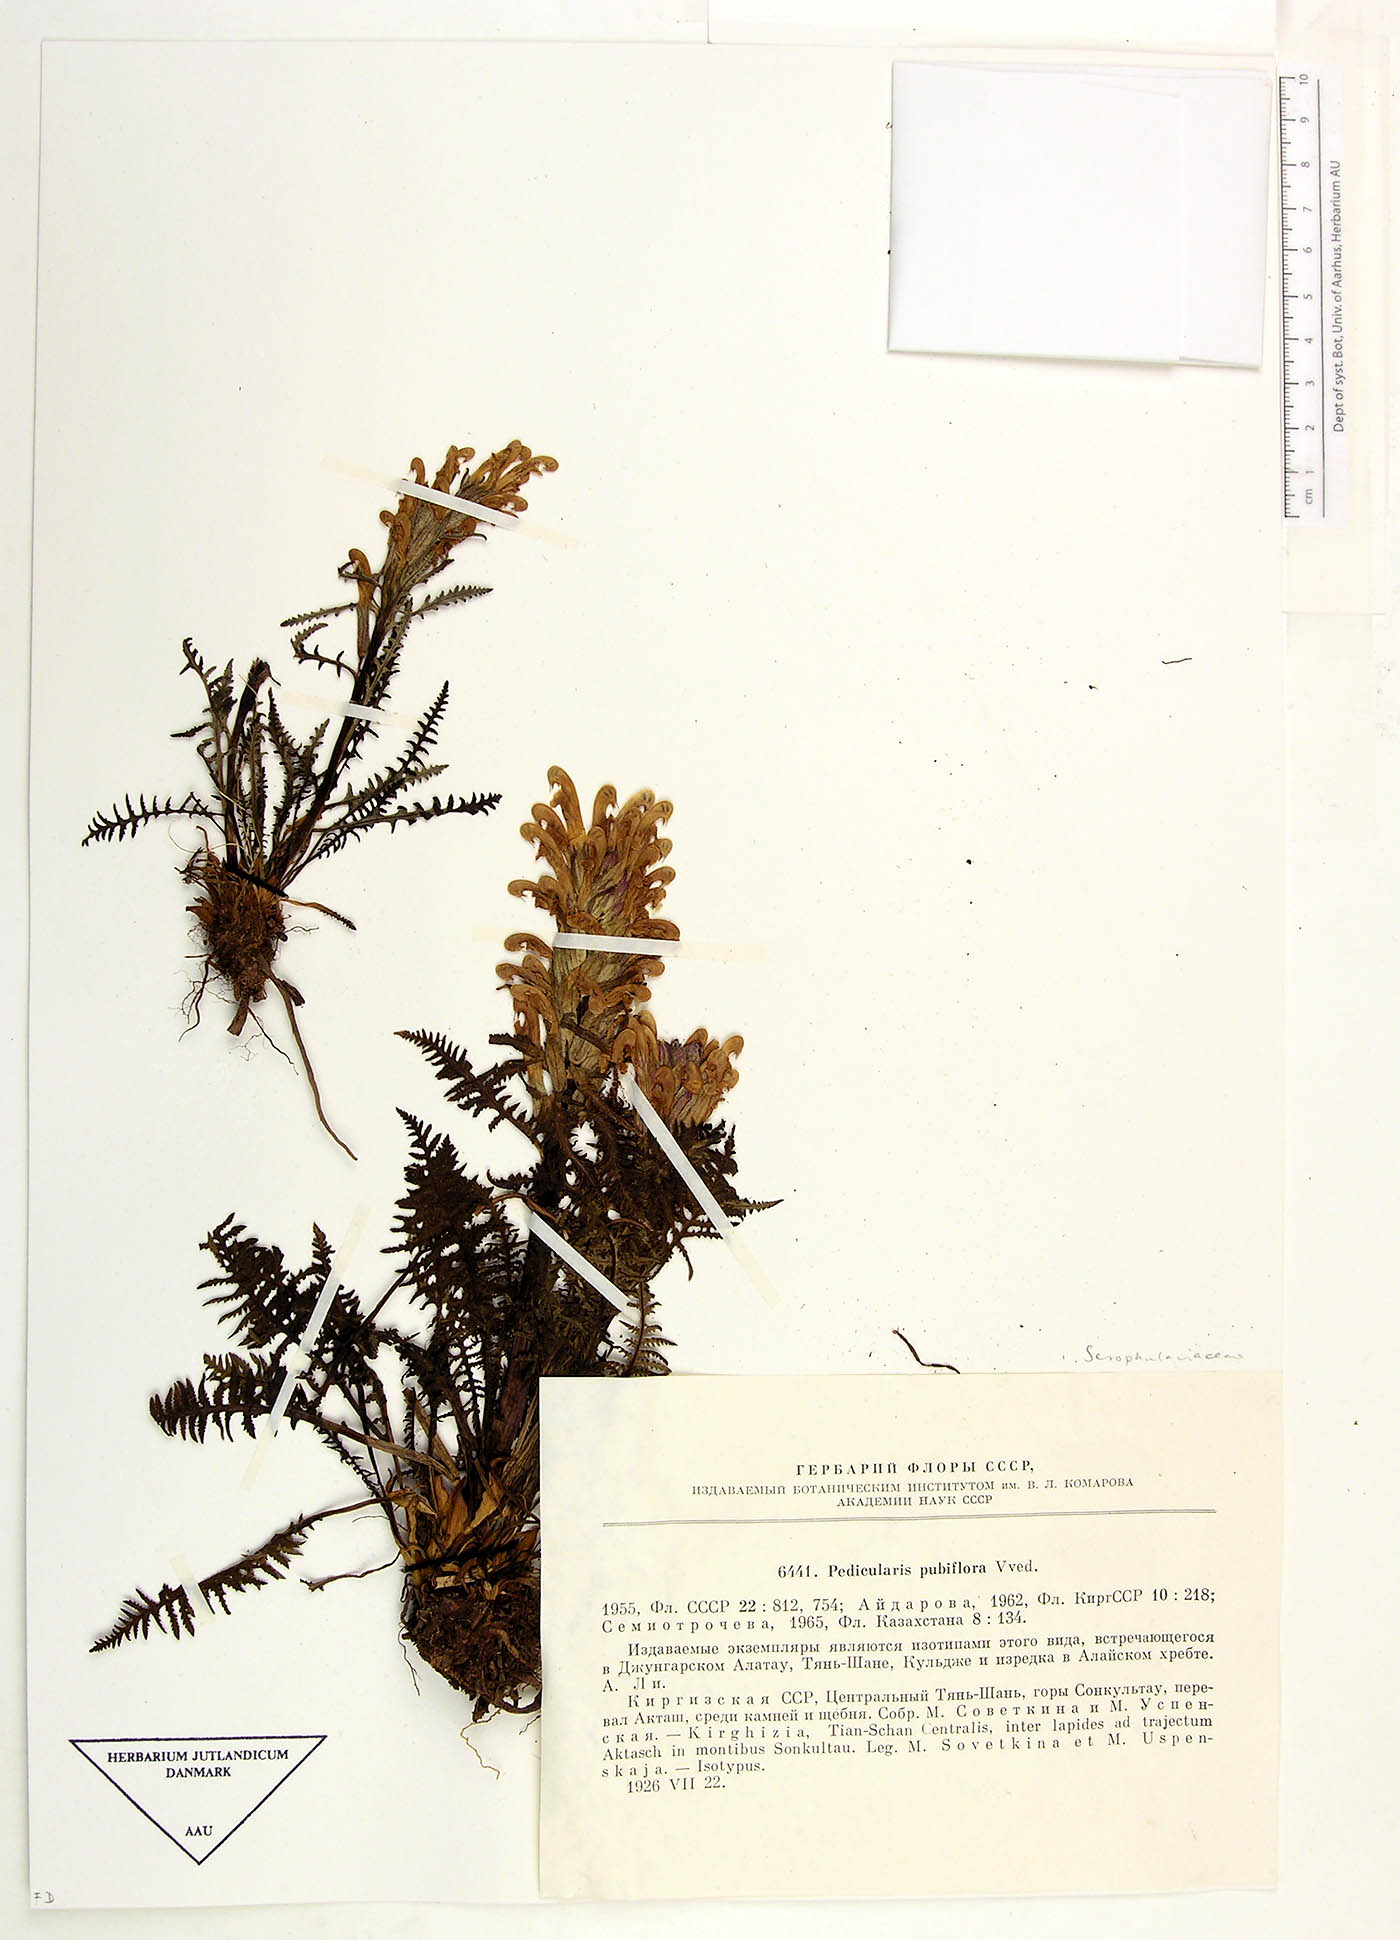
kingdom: Plantae
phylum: Tracheophyta
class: Magnoliopsida
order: Lamiales
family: Orobanchaceae
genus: Pedicularis
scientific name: Pedicularis pubiflora
